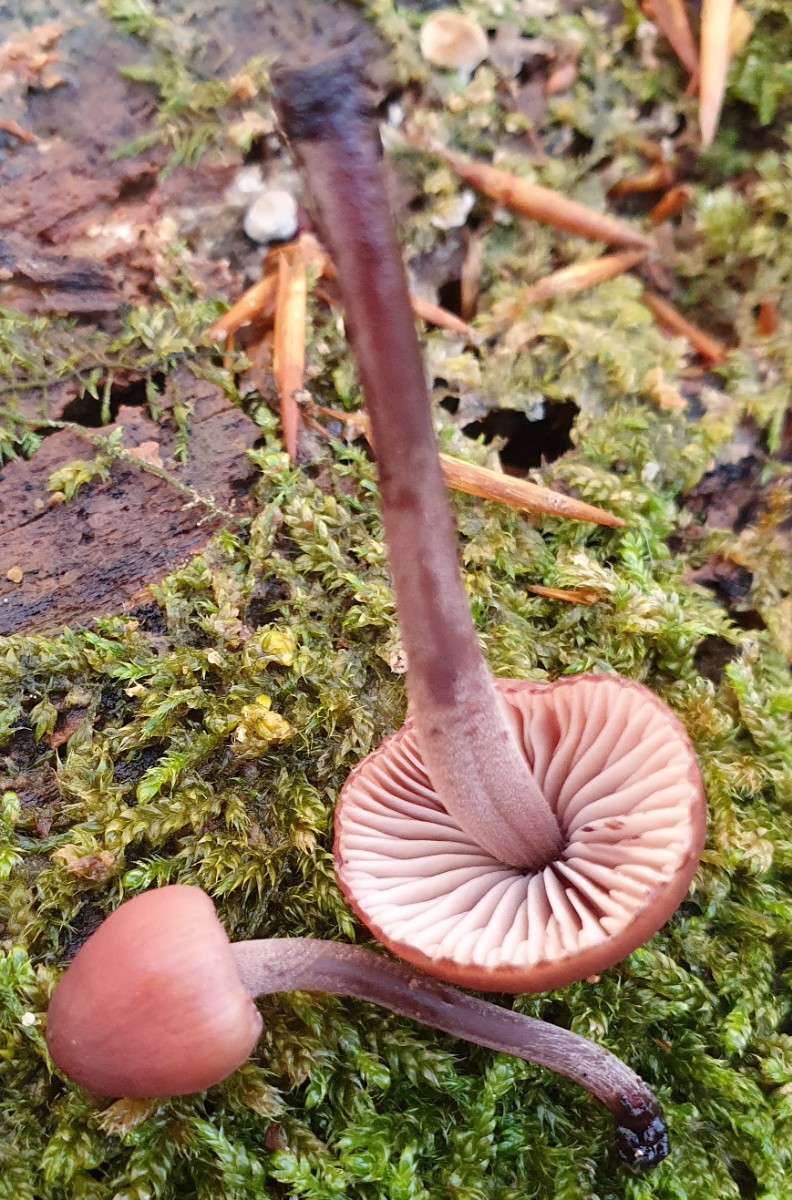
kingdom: Fungi
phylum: Basidiomycota
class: Agaricomycetes
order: Agaricales
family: Mycenaceae
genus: Mycena
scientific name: Mycena haematopus
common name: blødende huesvamp
